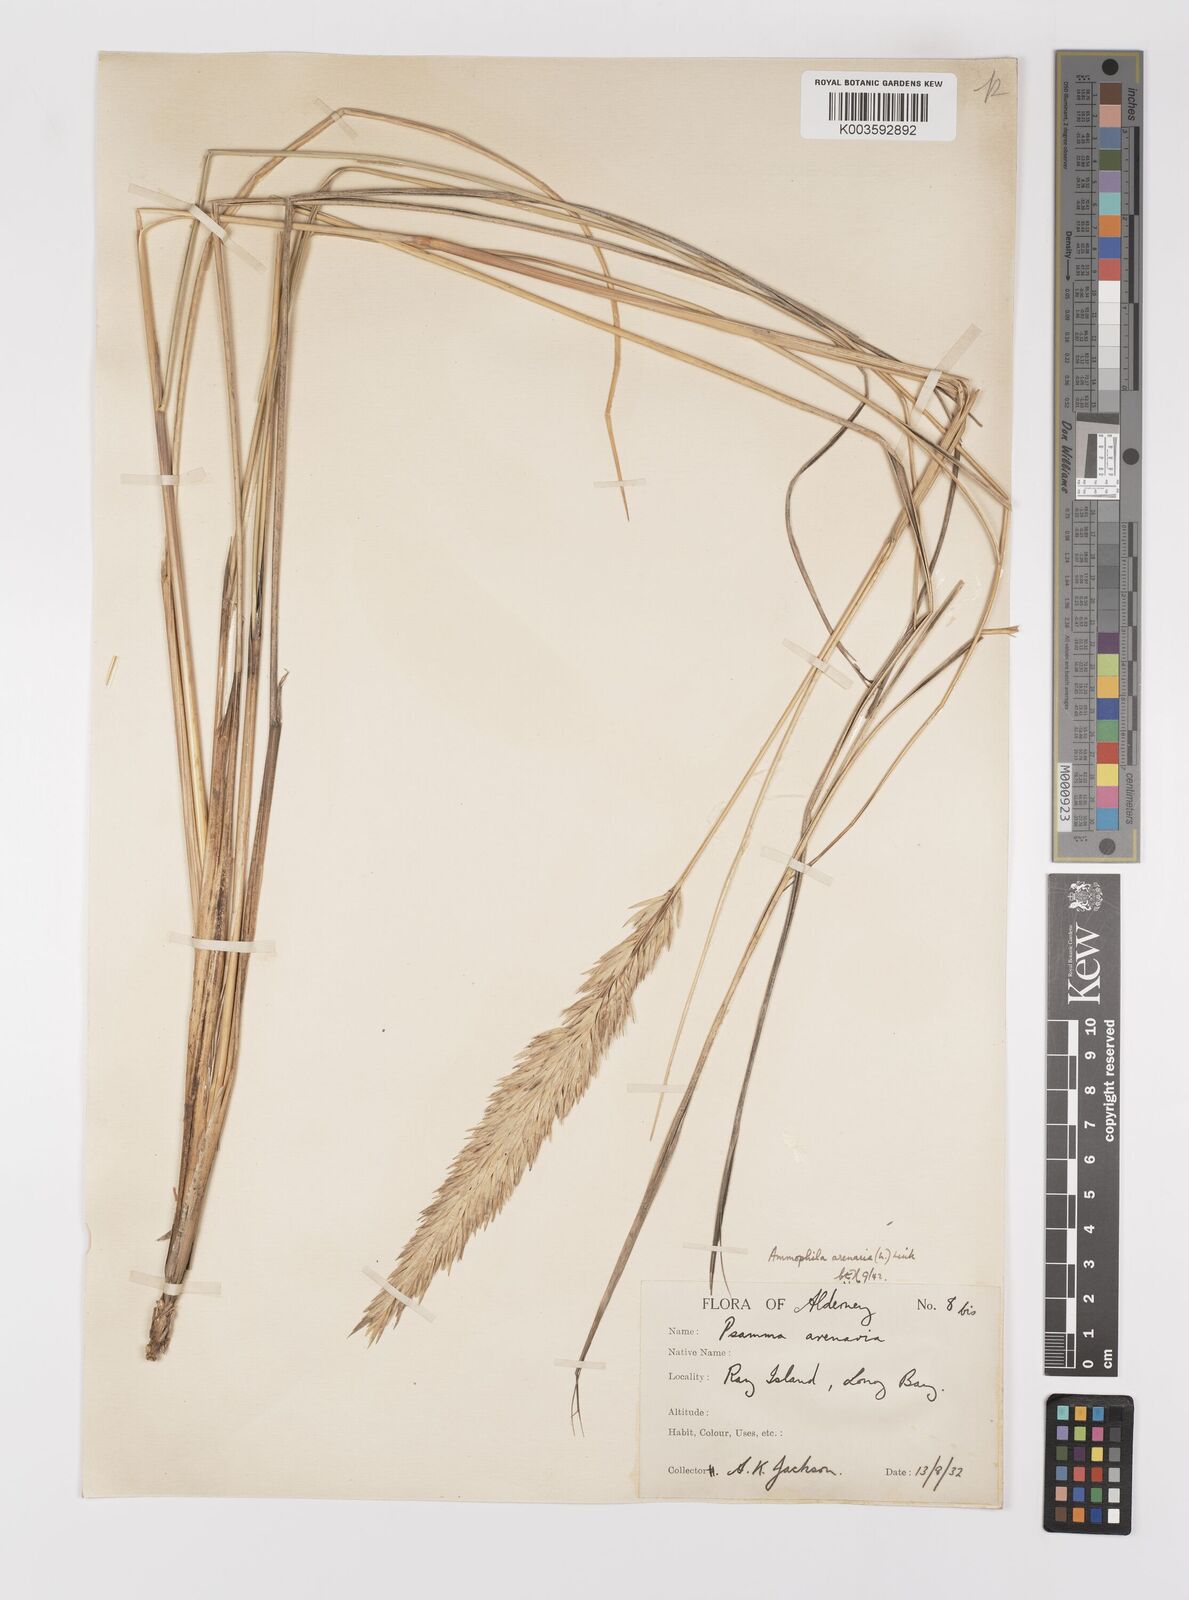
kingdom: Plantae
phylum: Tracheophyta
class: Liliopsida
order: Poales
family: Poaceae
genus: Calamagrostis
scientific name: Calamagrostis arenaria
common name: European beachgrass
